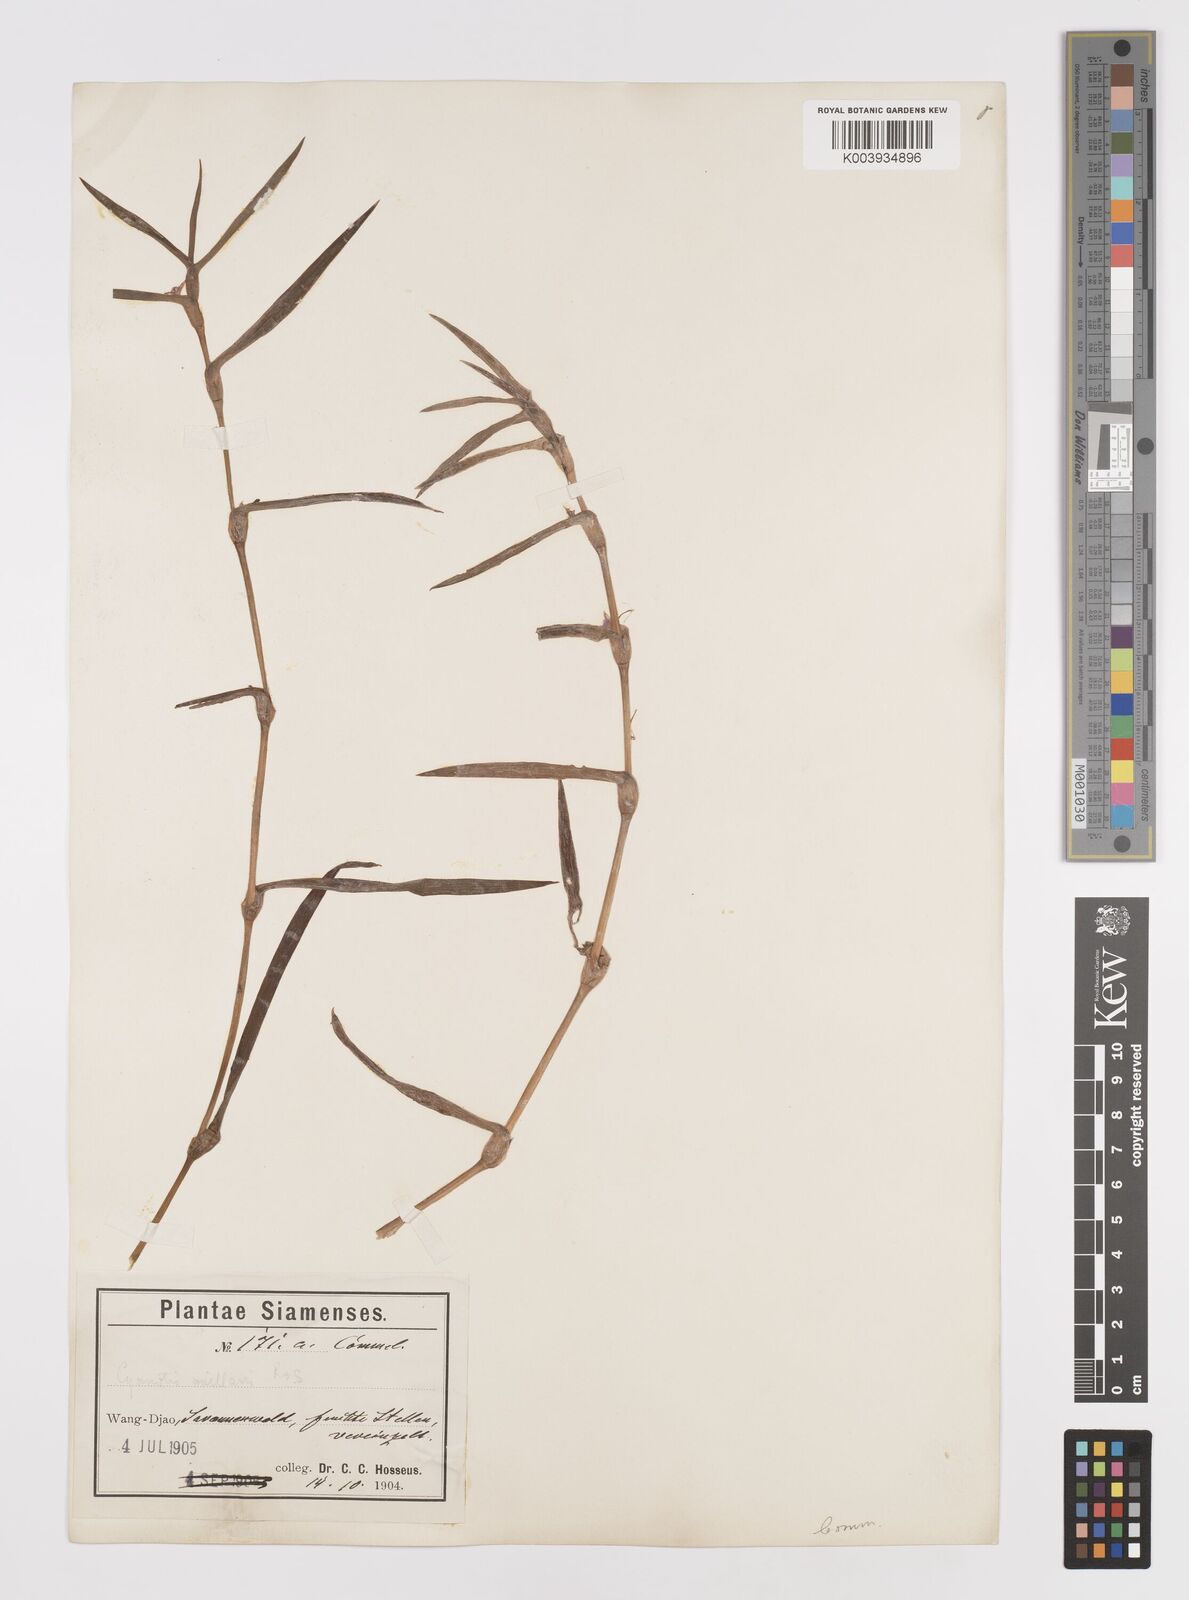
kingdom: Plantae
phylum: Tracheophyta
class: Liliopsida
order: Commelinales
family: Commelinaceae
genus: Cyanotis
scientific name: Cyanotis axillaris
